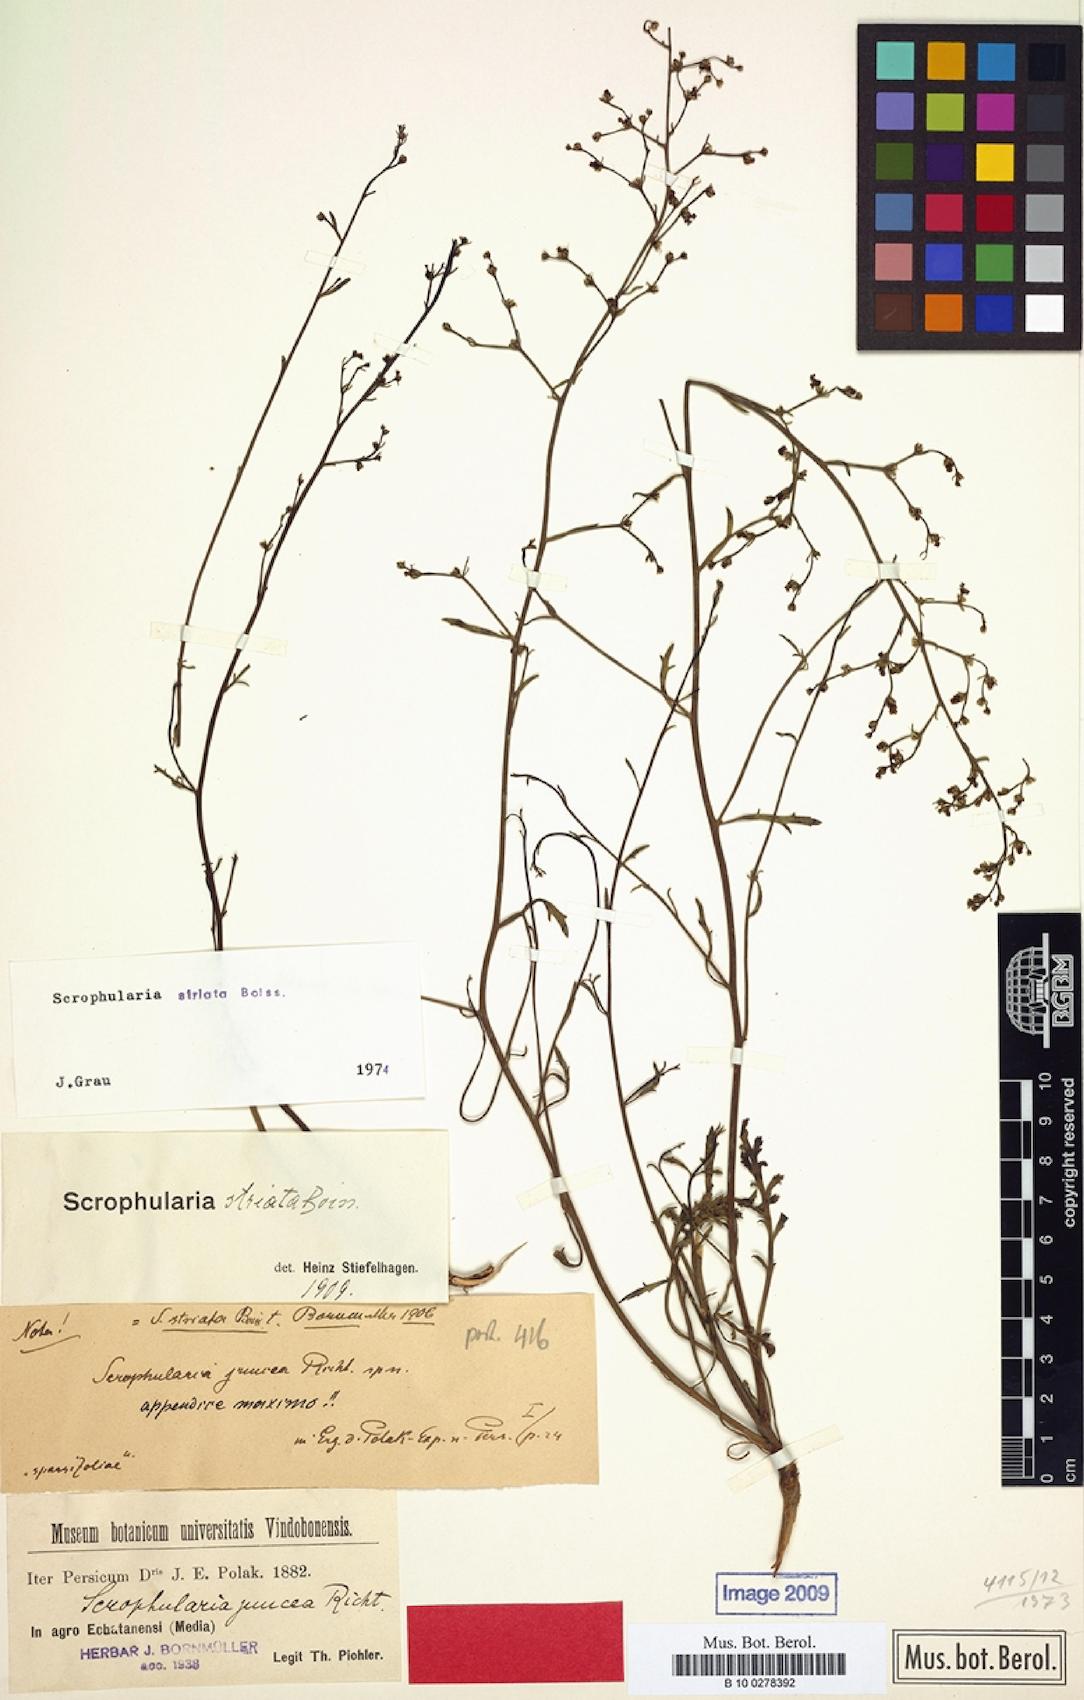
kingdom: Plantae
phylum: Tracheophyta
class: Magnoliopsida
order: Lamiales
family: Scrophulariaceae
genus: Scrophularia
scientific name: Scrophularia striata
